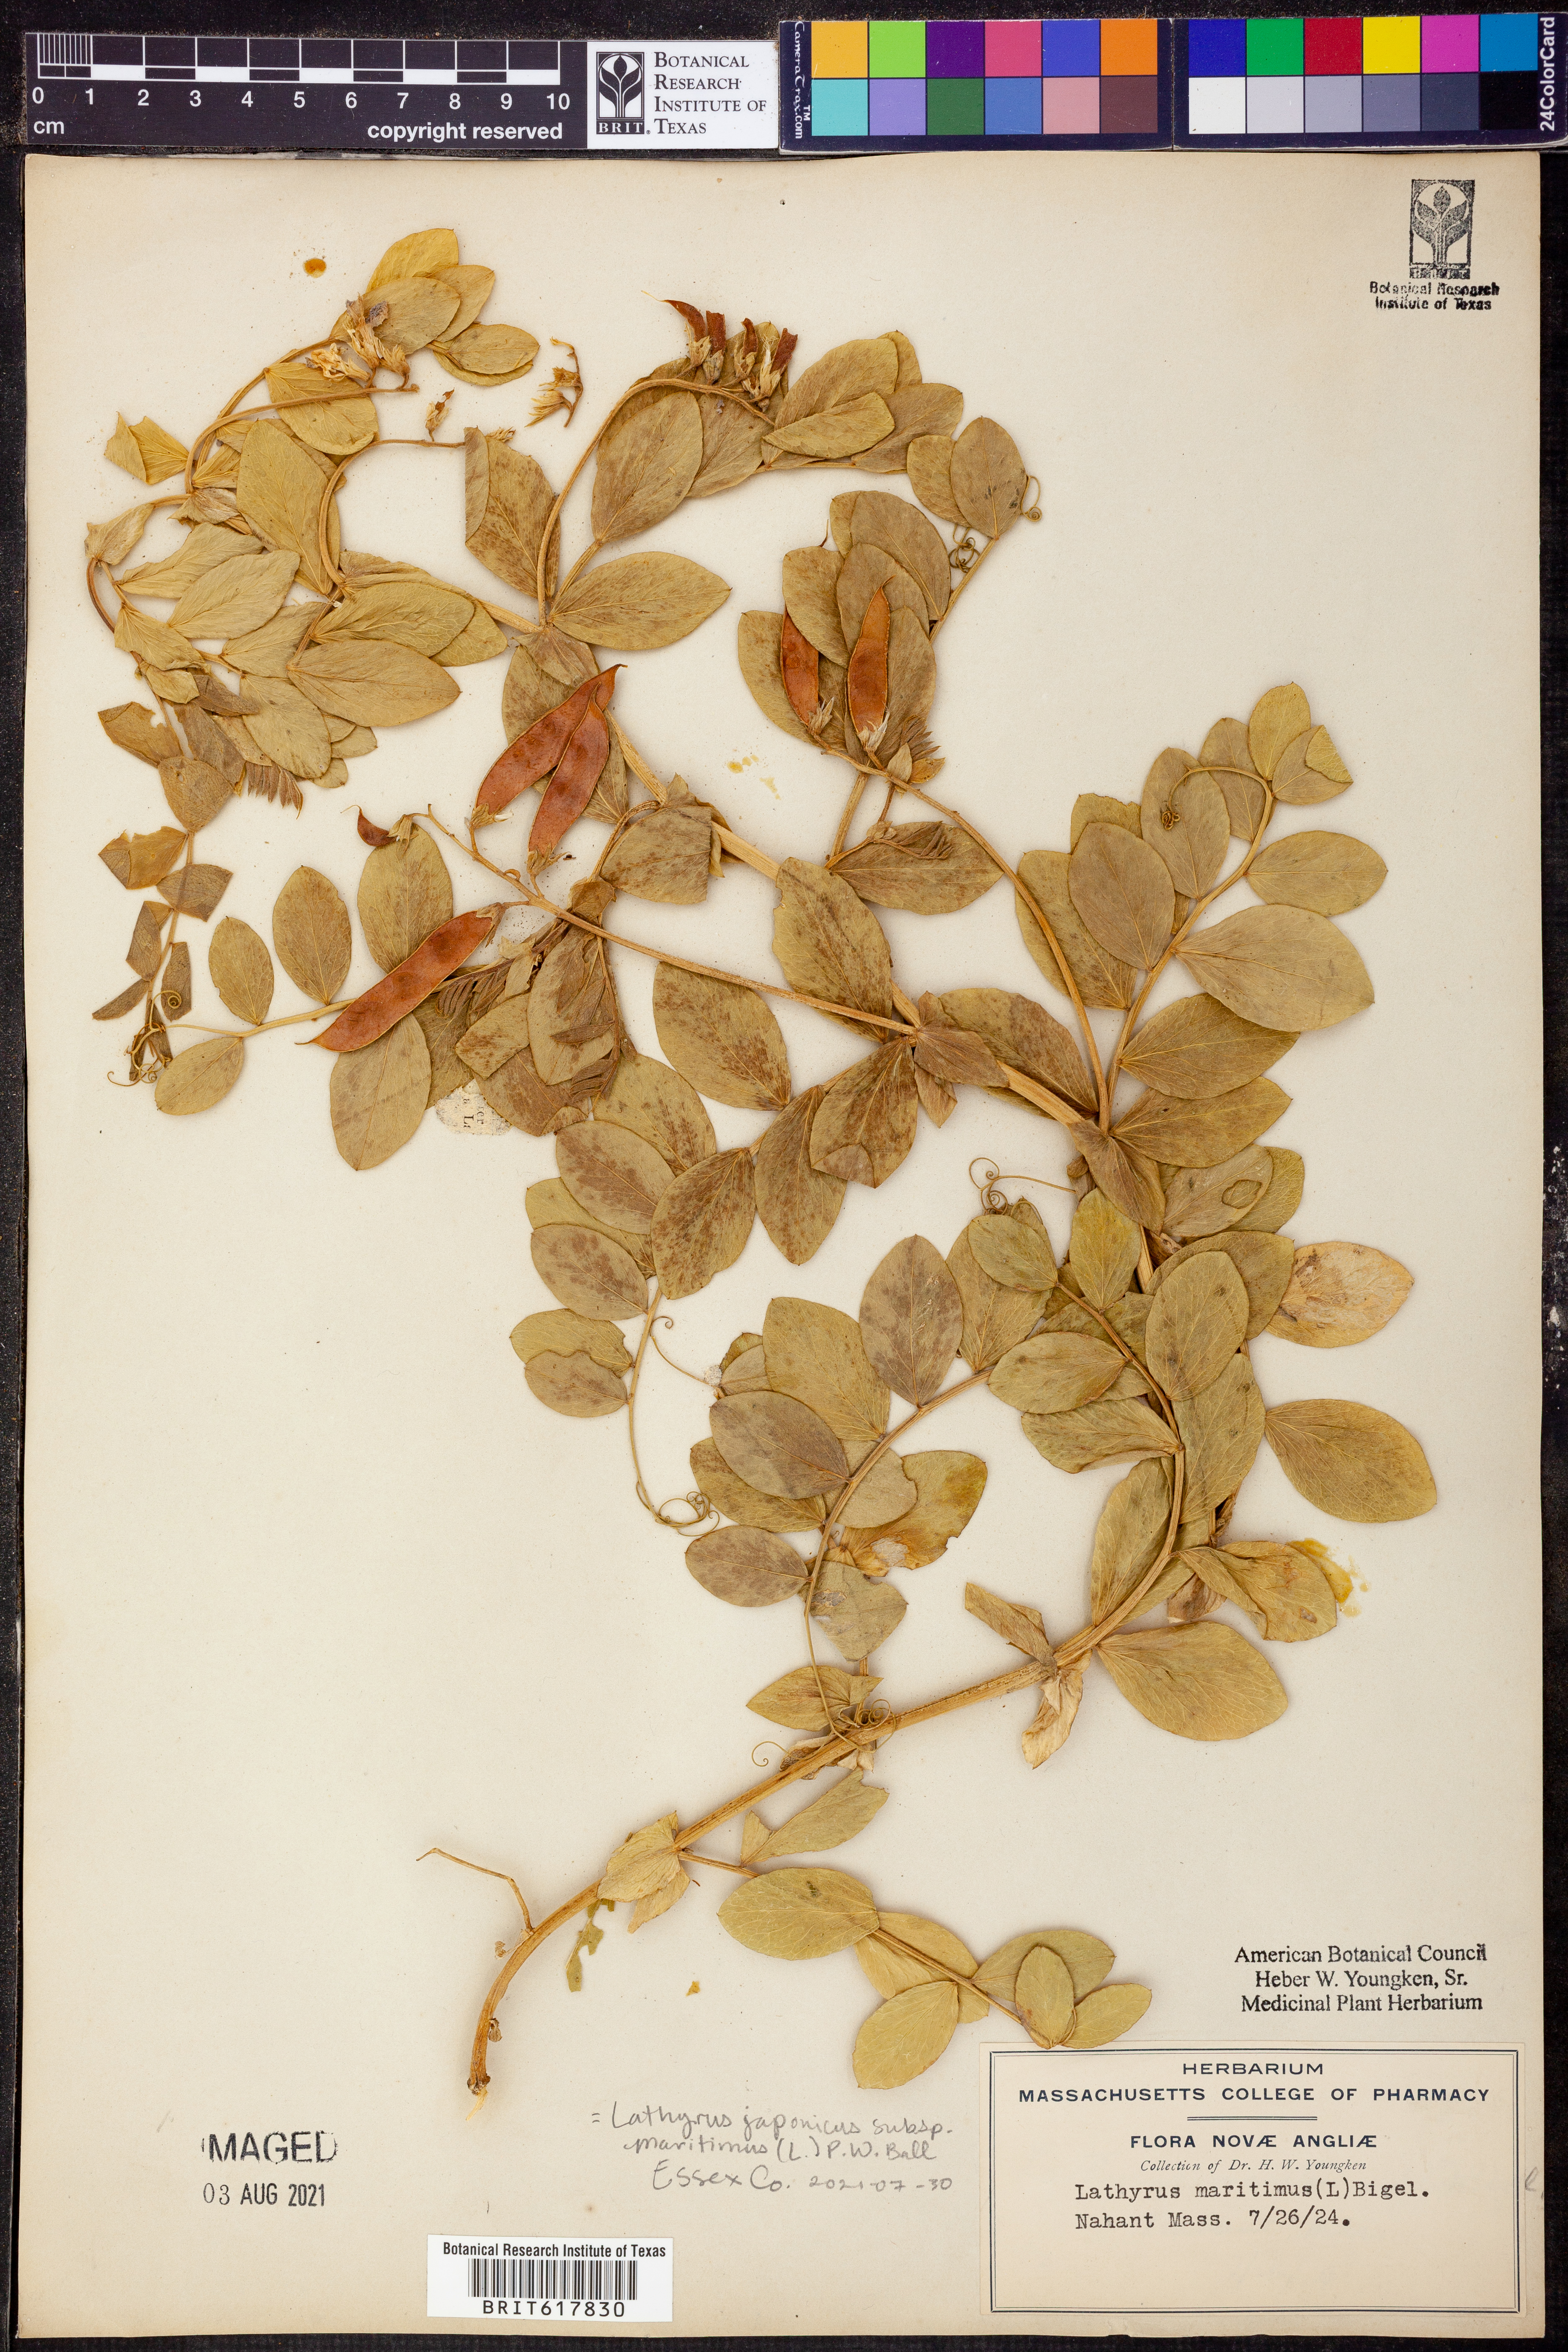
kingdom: Plantae
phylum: Tracheophyta
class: Magnoliopsida
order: Fabales
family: Fabaceae
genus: Lathyrus
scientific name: Lathyrus japonicus
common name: Sea pea
